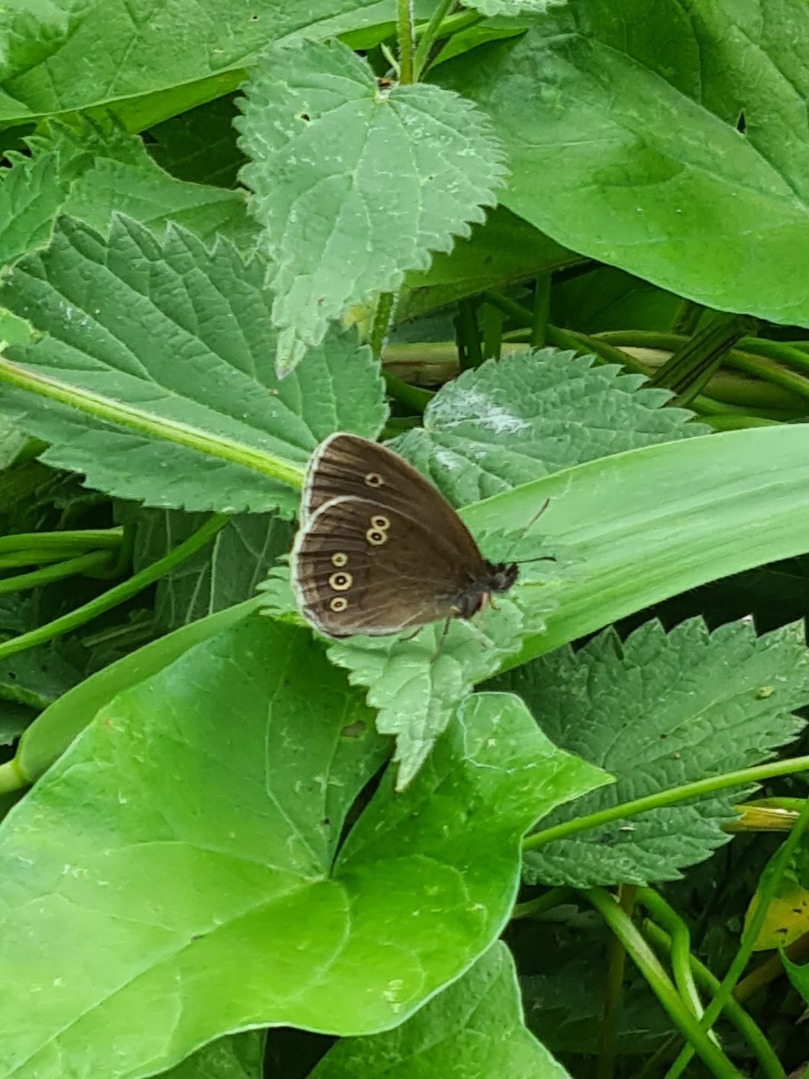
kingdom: Animalia
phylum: Arthropoda
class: Insecta
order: Lepidoptera
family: Nymphalidae
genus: Aphantopus
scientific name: Aphantopus hyperantus
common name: Engrandøje
